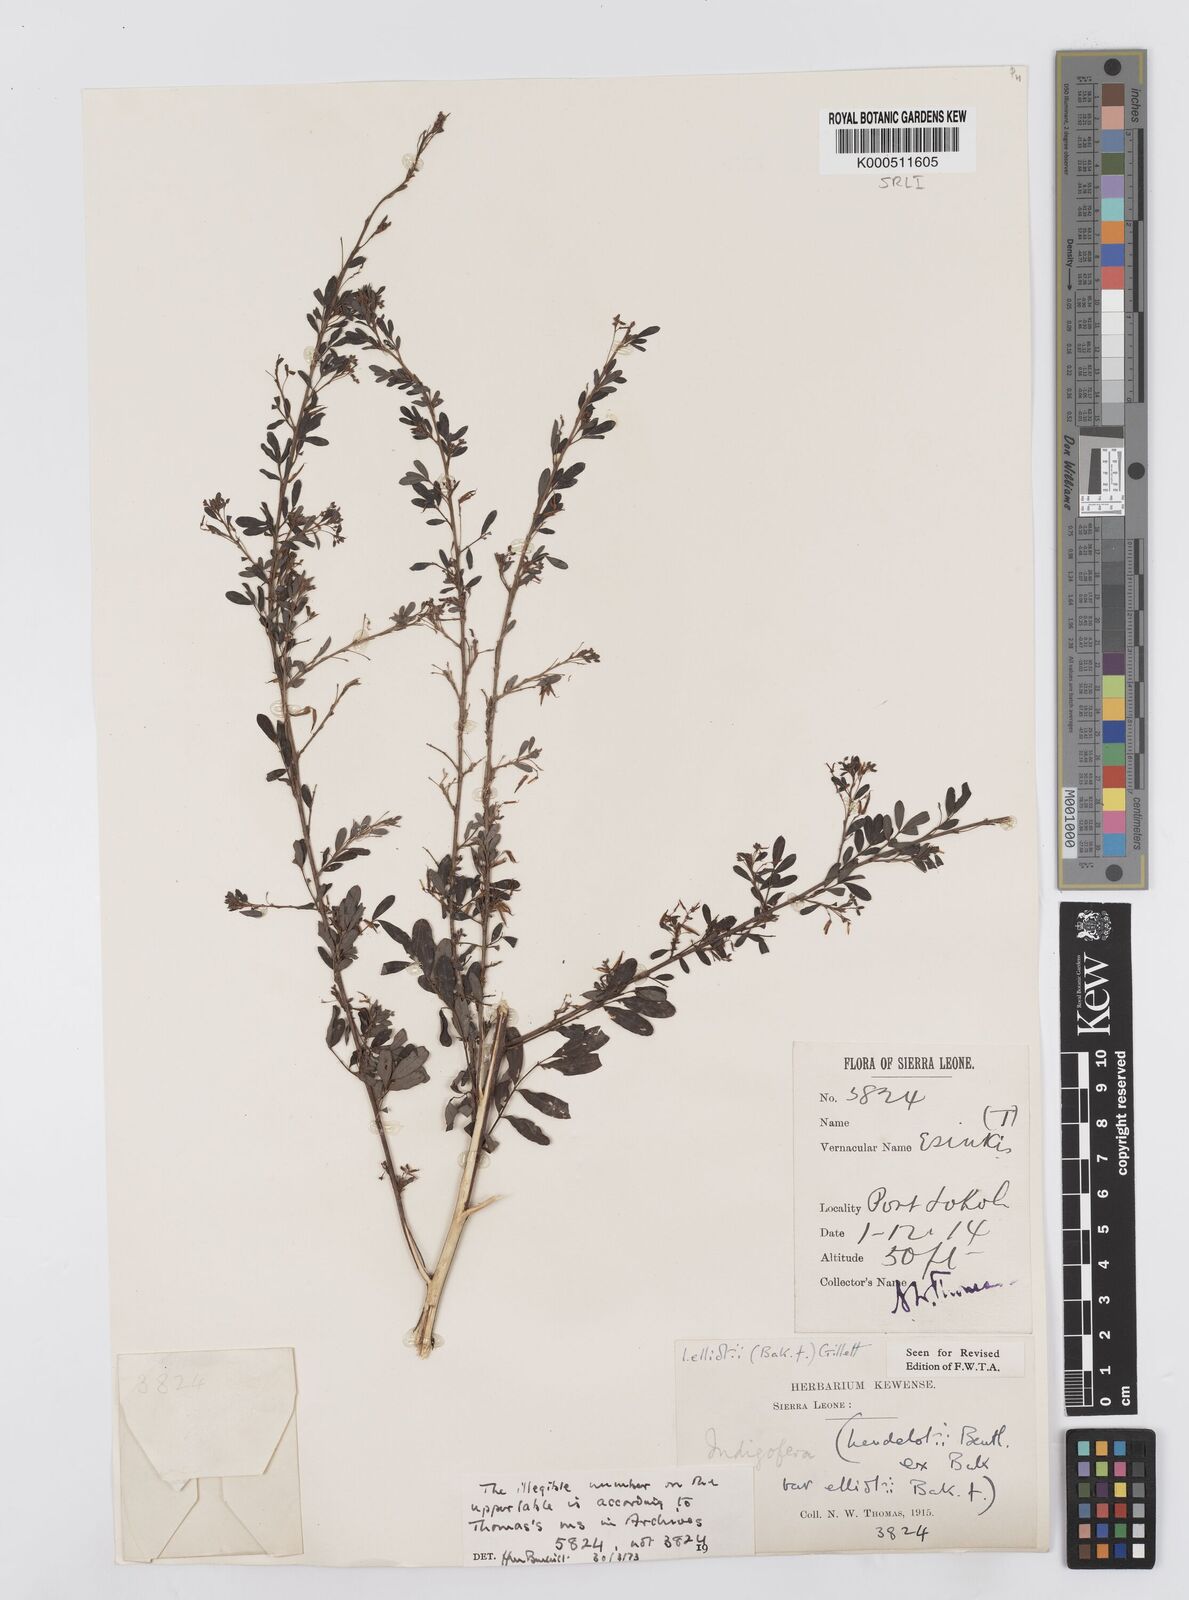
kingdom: Plantae
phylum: Tracheophyta
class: Magnoliopsida
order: Fabales
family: Fabaceae
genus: Indigofera
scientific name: Indigofera elliotii
